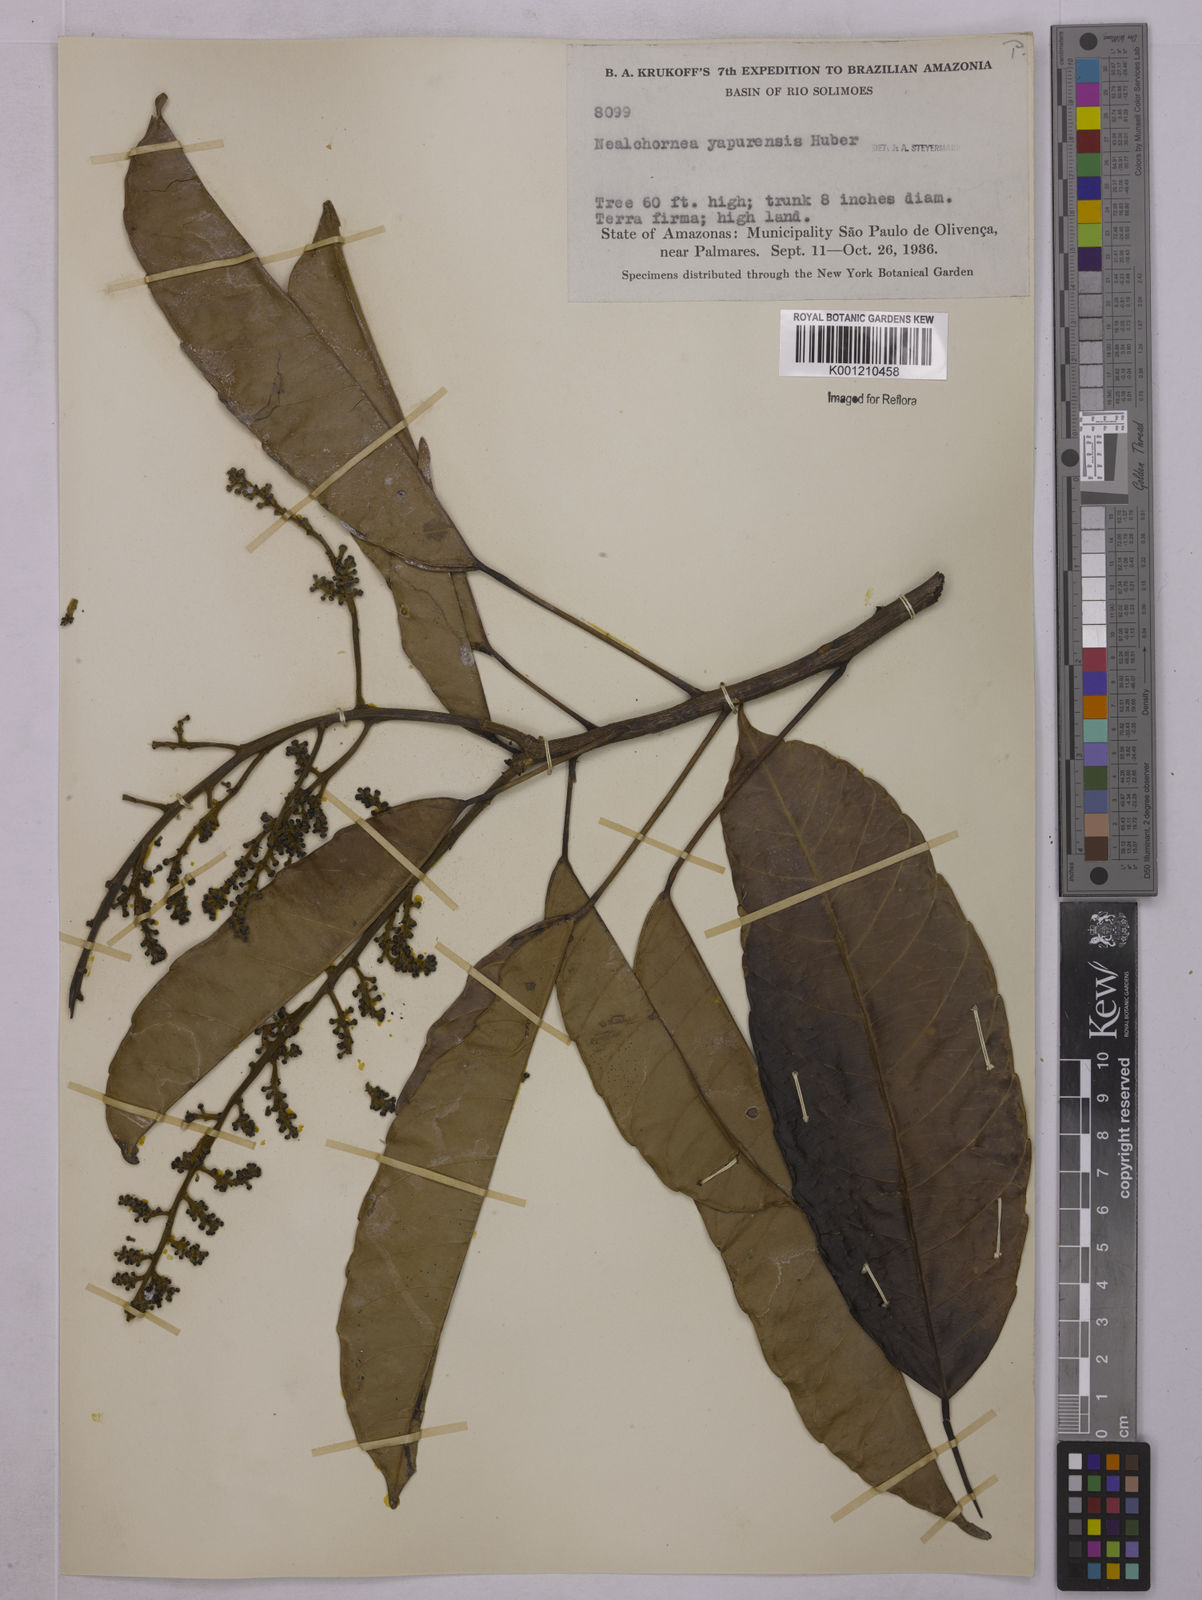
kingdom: Plantae
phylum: Tracheophyta
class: Magnoliopsida
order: Malpighiales
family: Euphorbiaceae
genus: Nealchornea
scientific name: Nealchornea yapurensis
